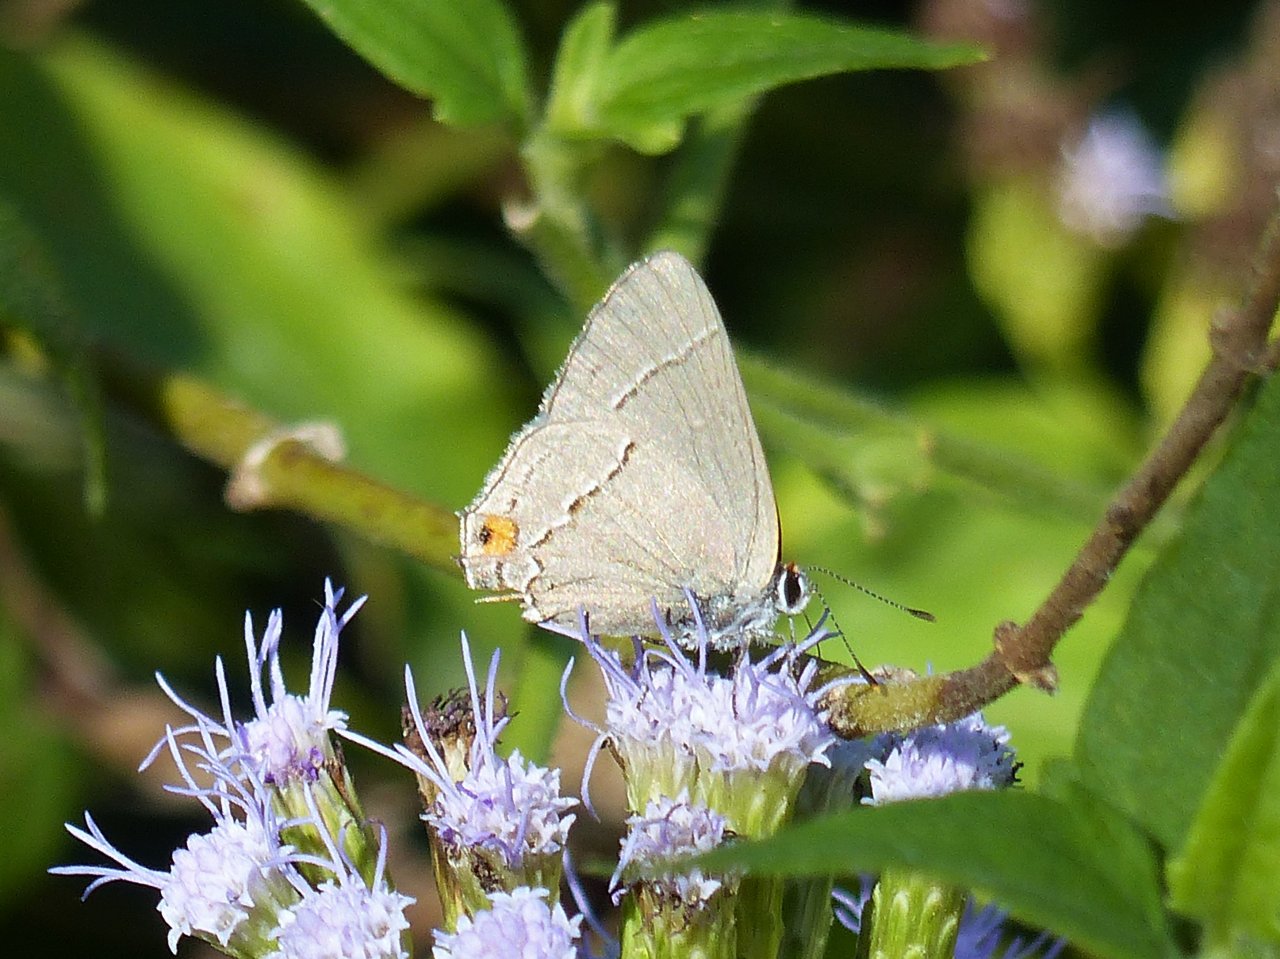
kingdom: Animalia
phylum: Arthropoda
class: Insecta
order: Lepidoptera
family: Lycaenidae
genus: Strymon
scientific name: Strymon melinus
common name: Gray Hairstreak
